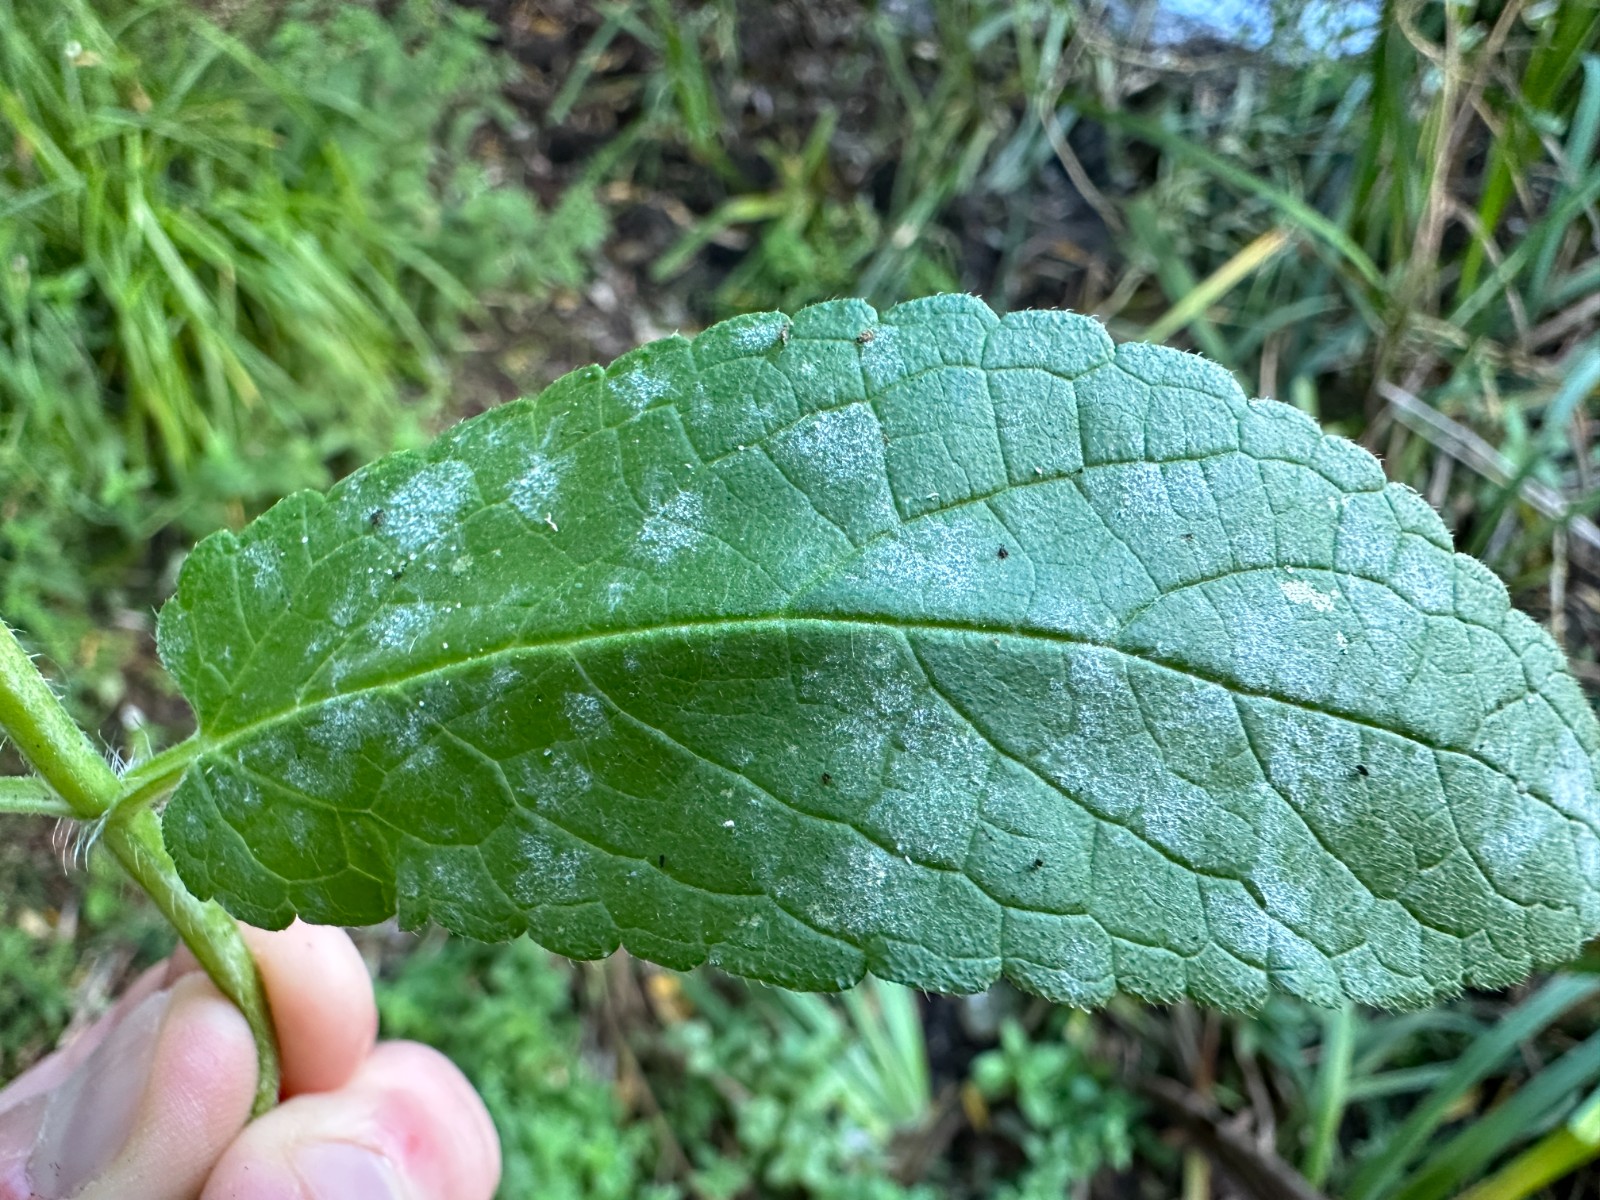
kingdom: Fungi
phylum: Ascomycota
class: Leotiomycetes
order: Helotiales
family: Erysiphaceae
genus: Neoerysiphe
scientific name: Neoerysiphe galeopsidis
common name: Mint mildew
